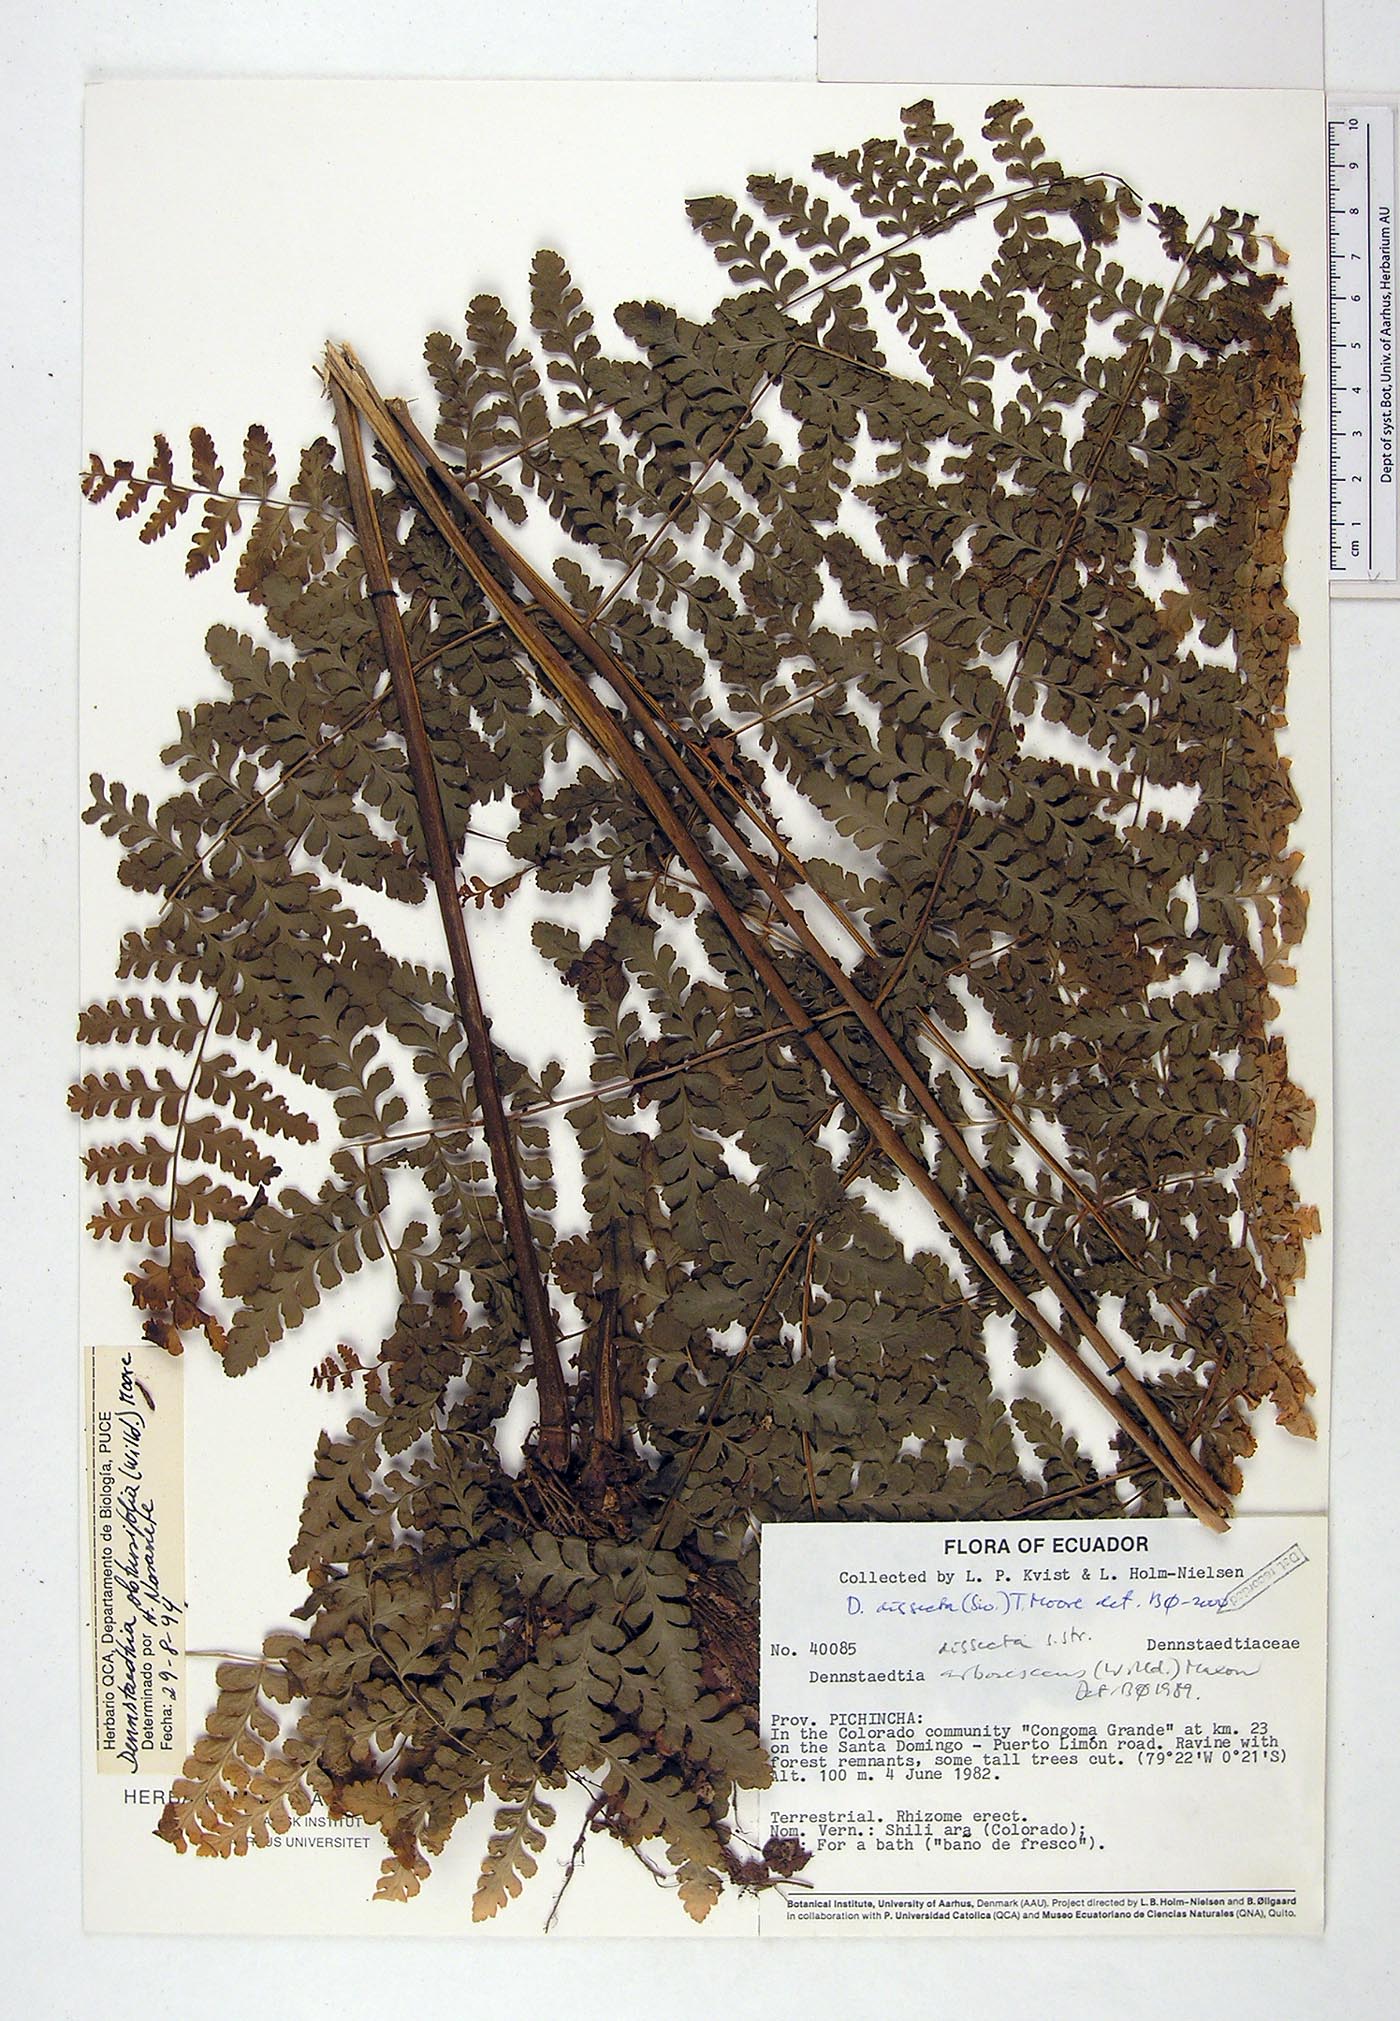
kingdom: Plantae
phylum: Tracheophyta
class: Polypodiopsida
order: Polypodiales
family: Dennstaedtiaceae
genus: Dennstaedtia
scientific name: Dennstaedtia dissecta
